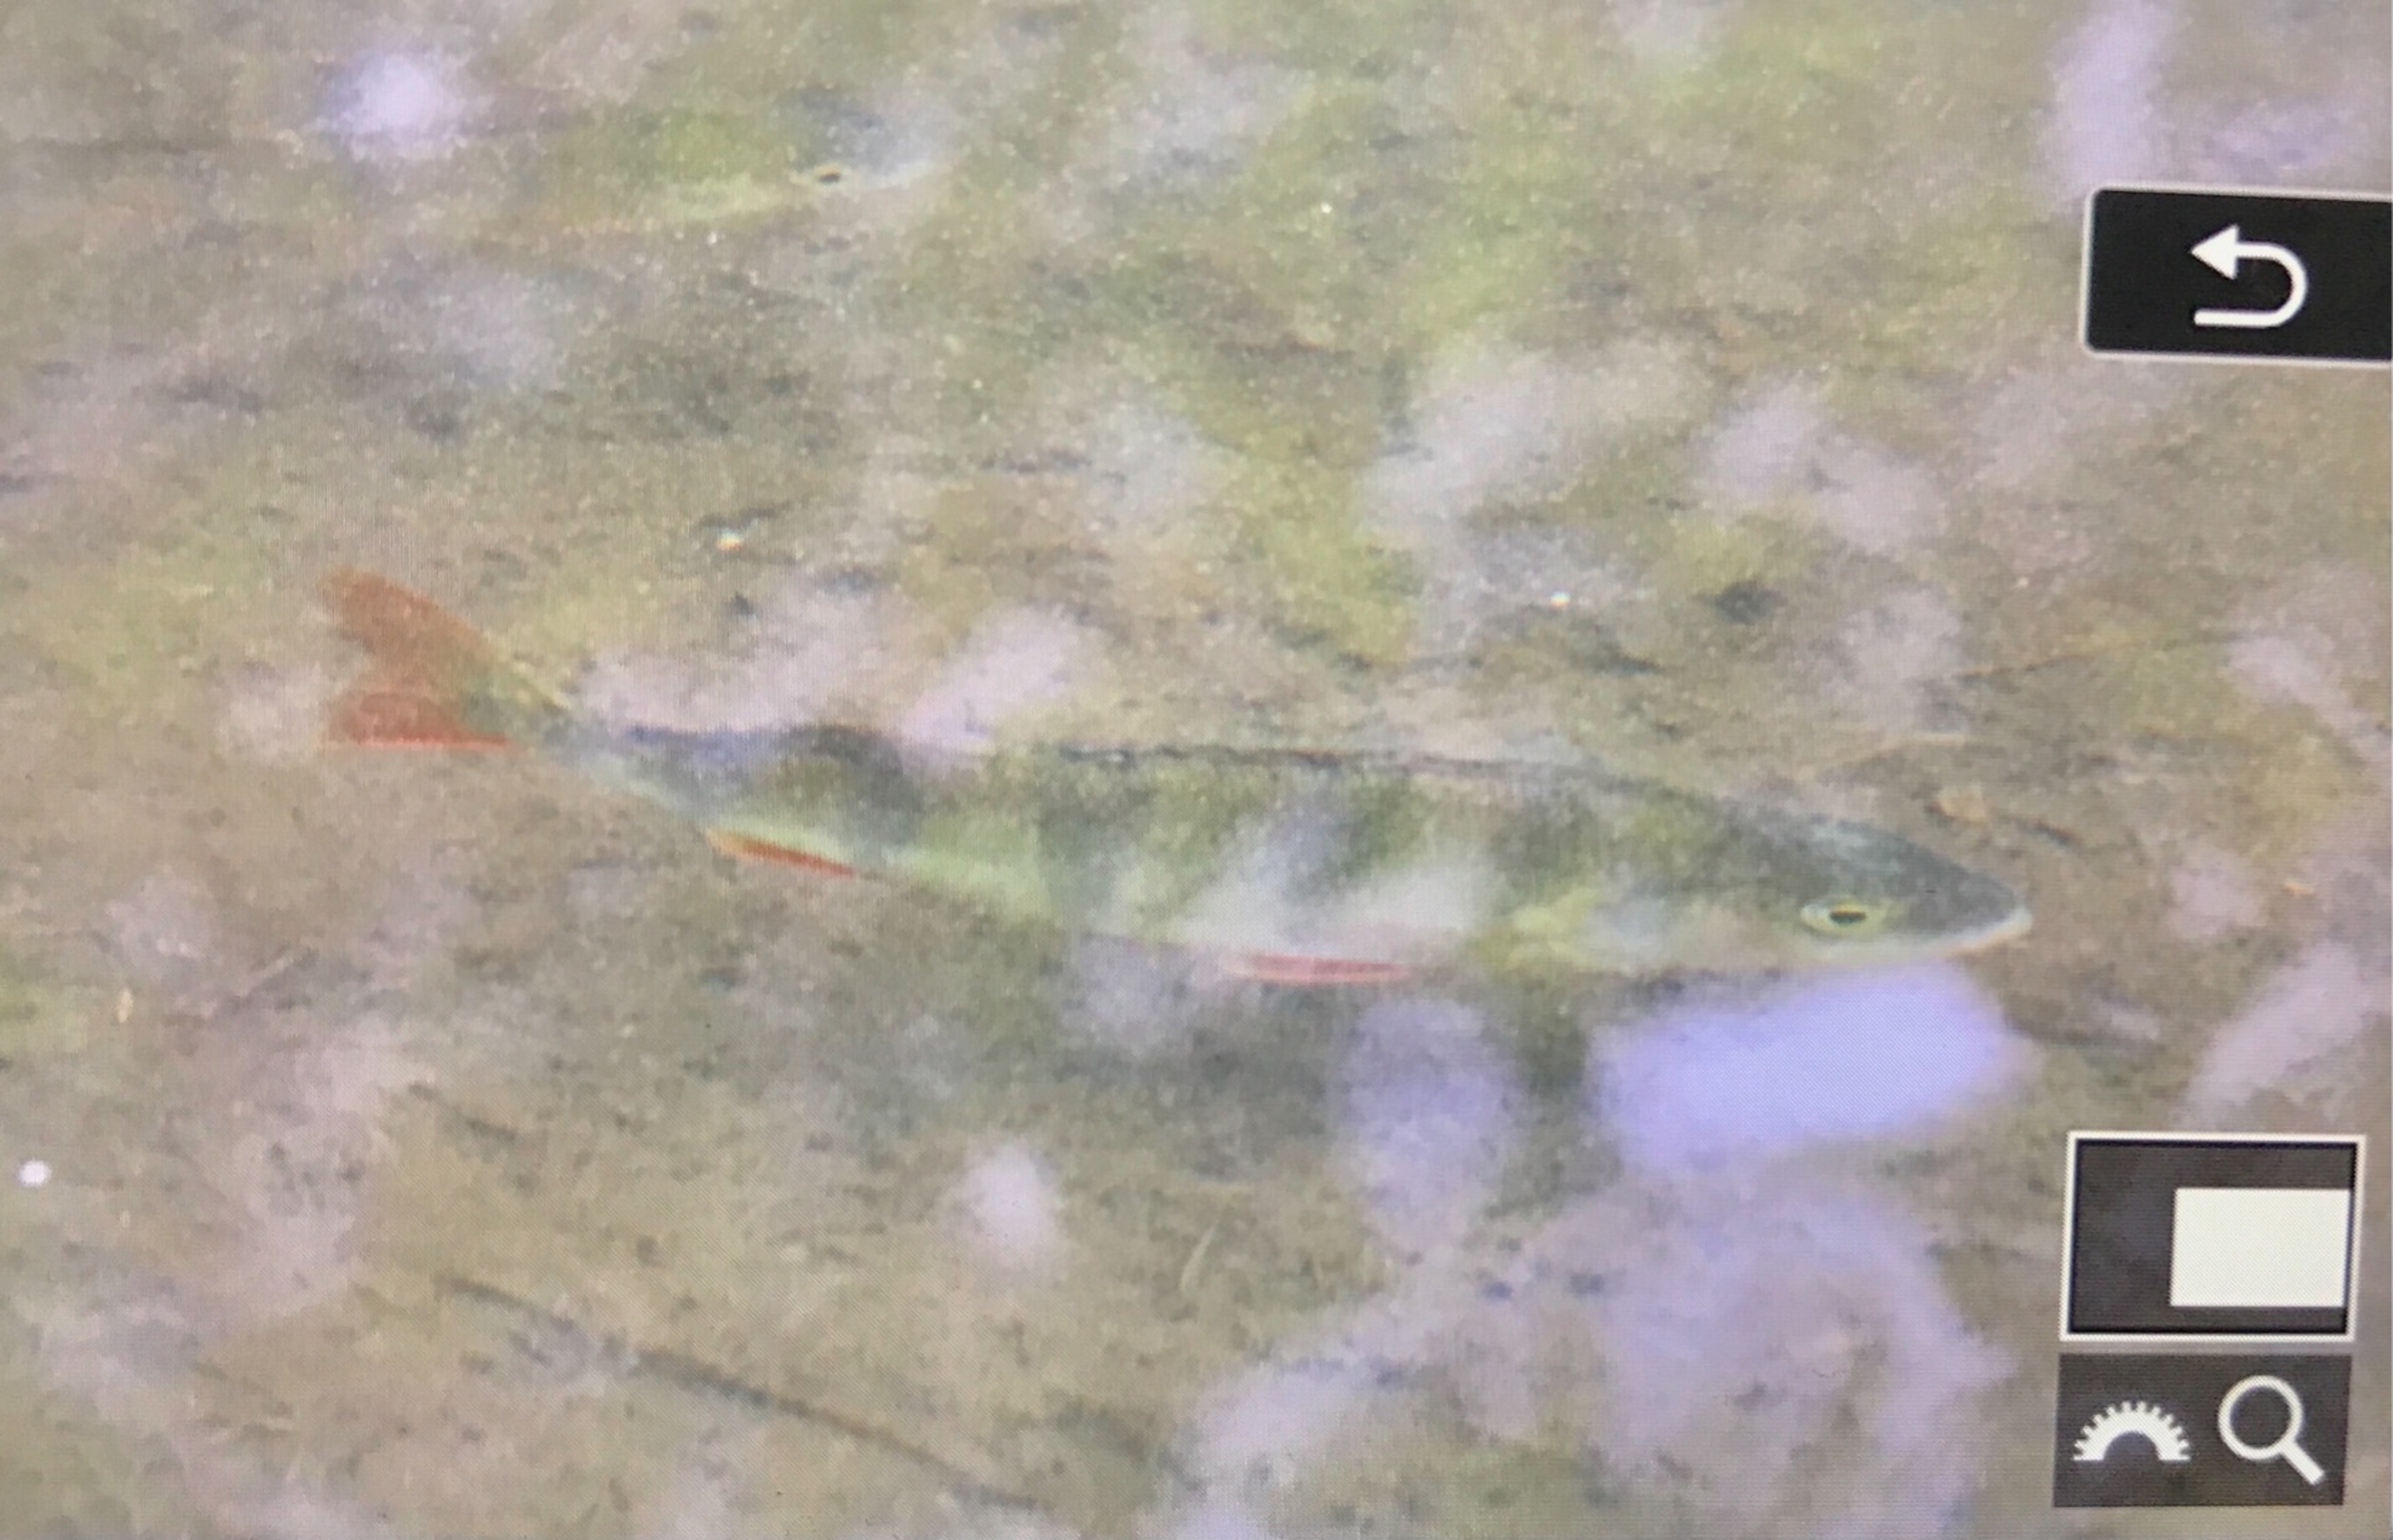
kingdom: Animalia
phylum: Chordata
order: Perciformes
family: Percidae
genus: Perca
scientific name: Perca fluviatilis
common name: Aborre
